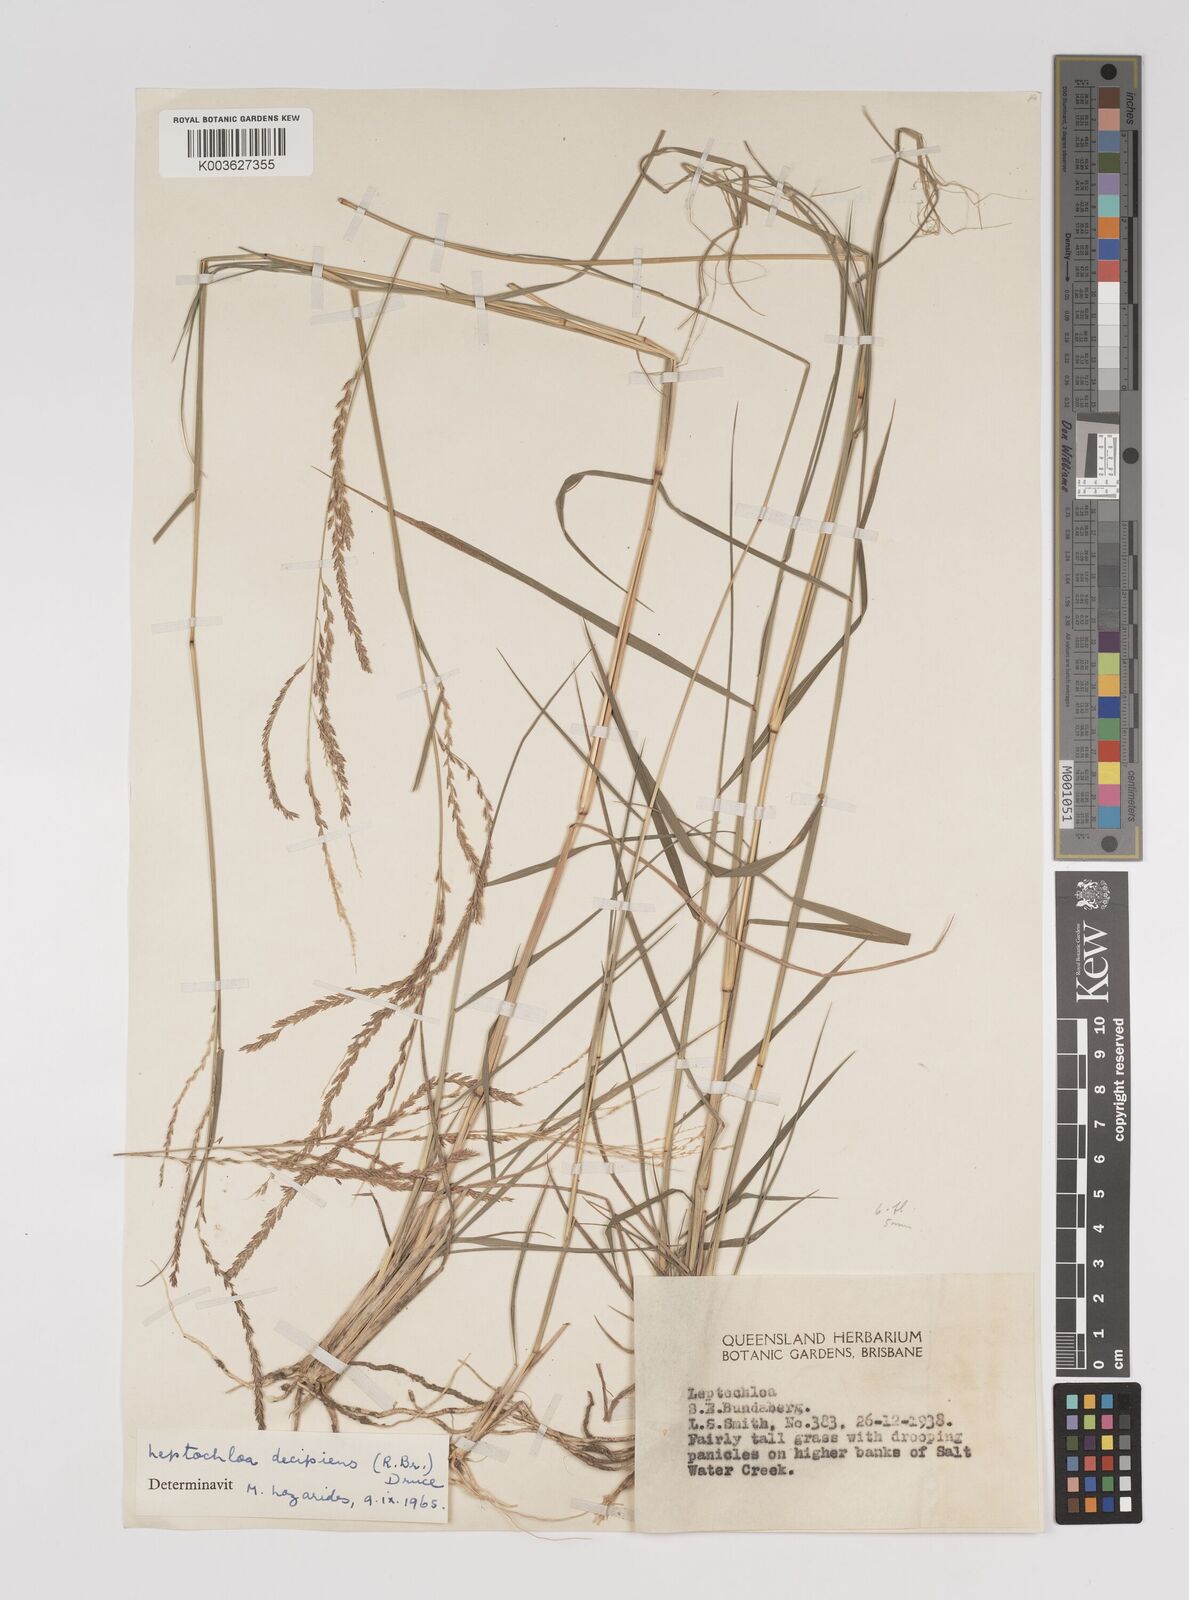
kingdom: Plantae
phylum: Tracheophyta
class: Liliopsida
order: Poales
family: Poaceae
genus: Leptochloa
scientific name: Leptochloa decipiens
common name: Australian sprangletop
